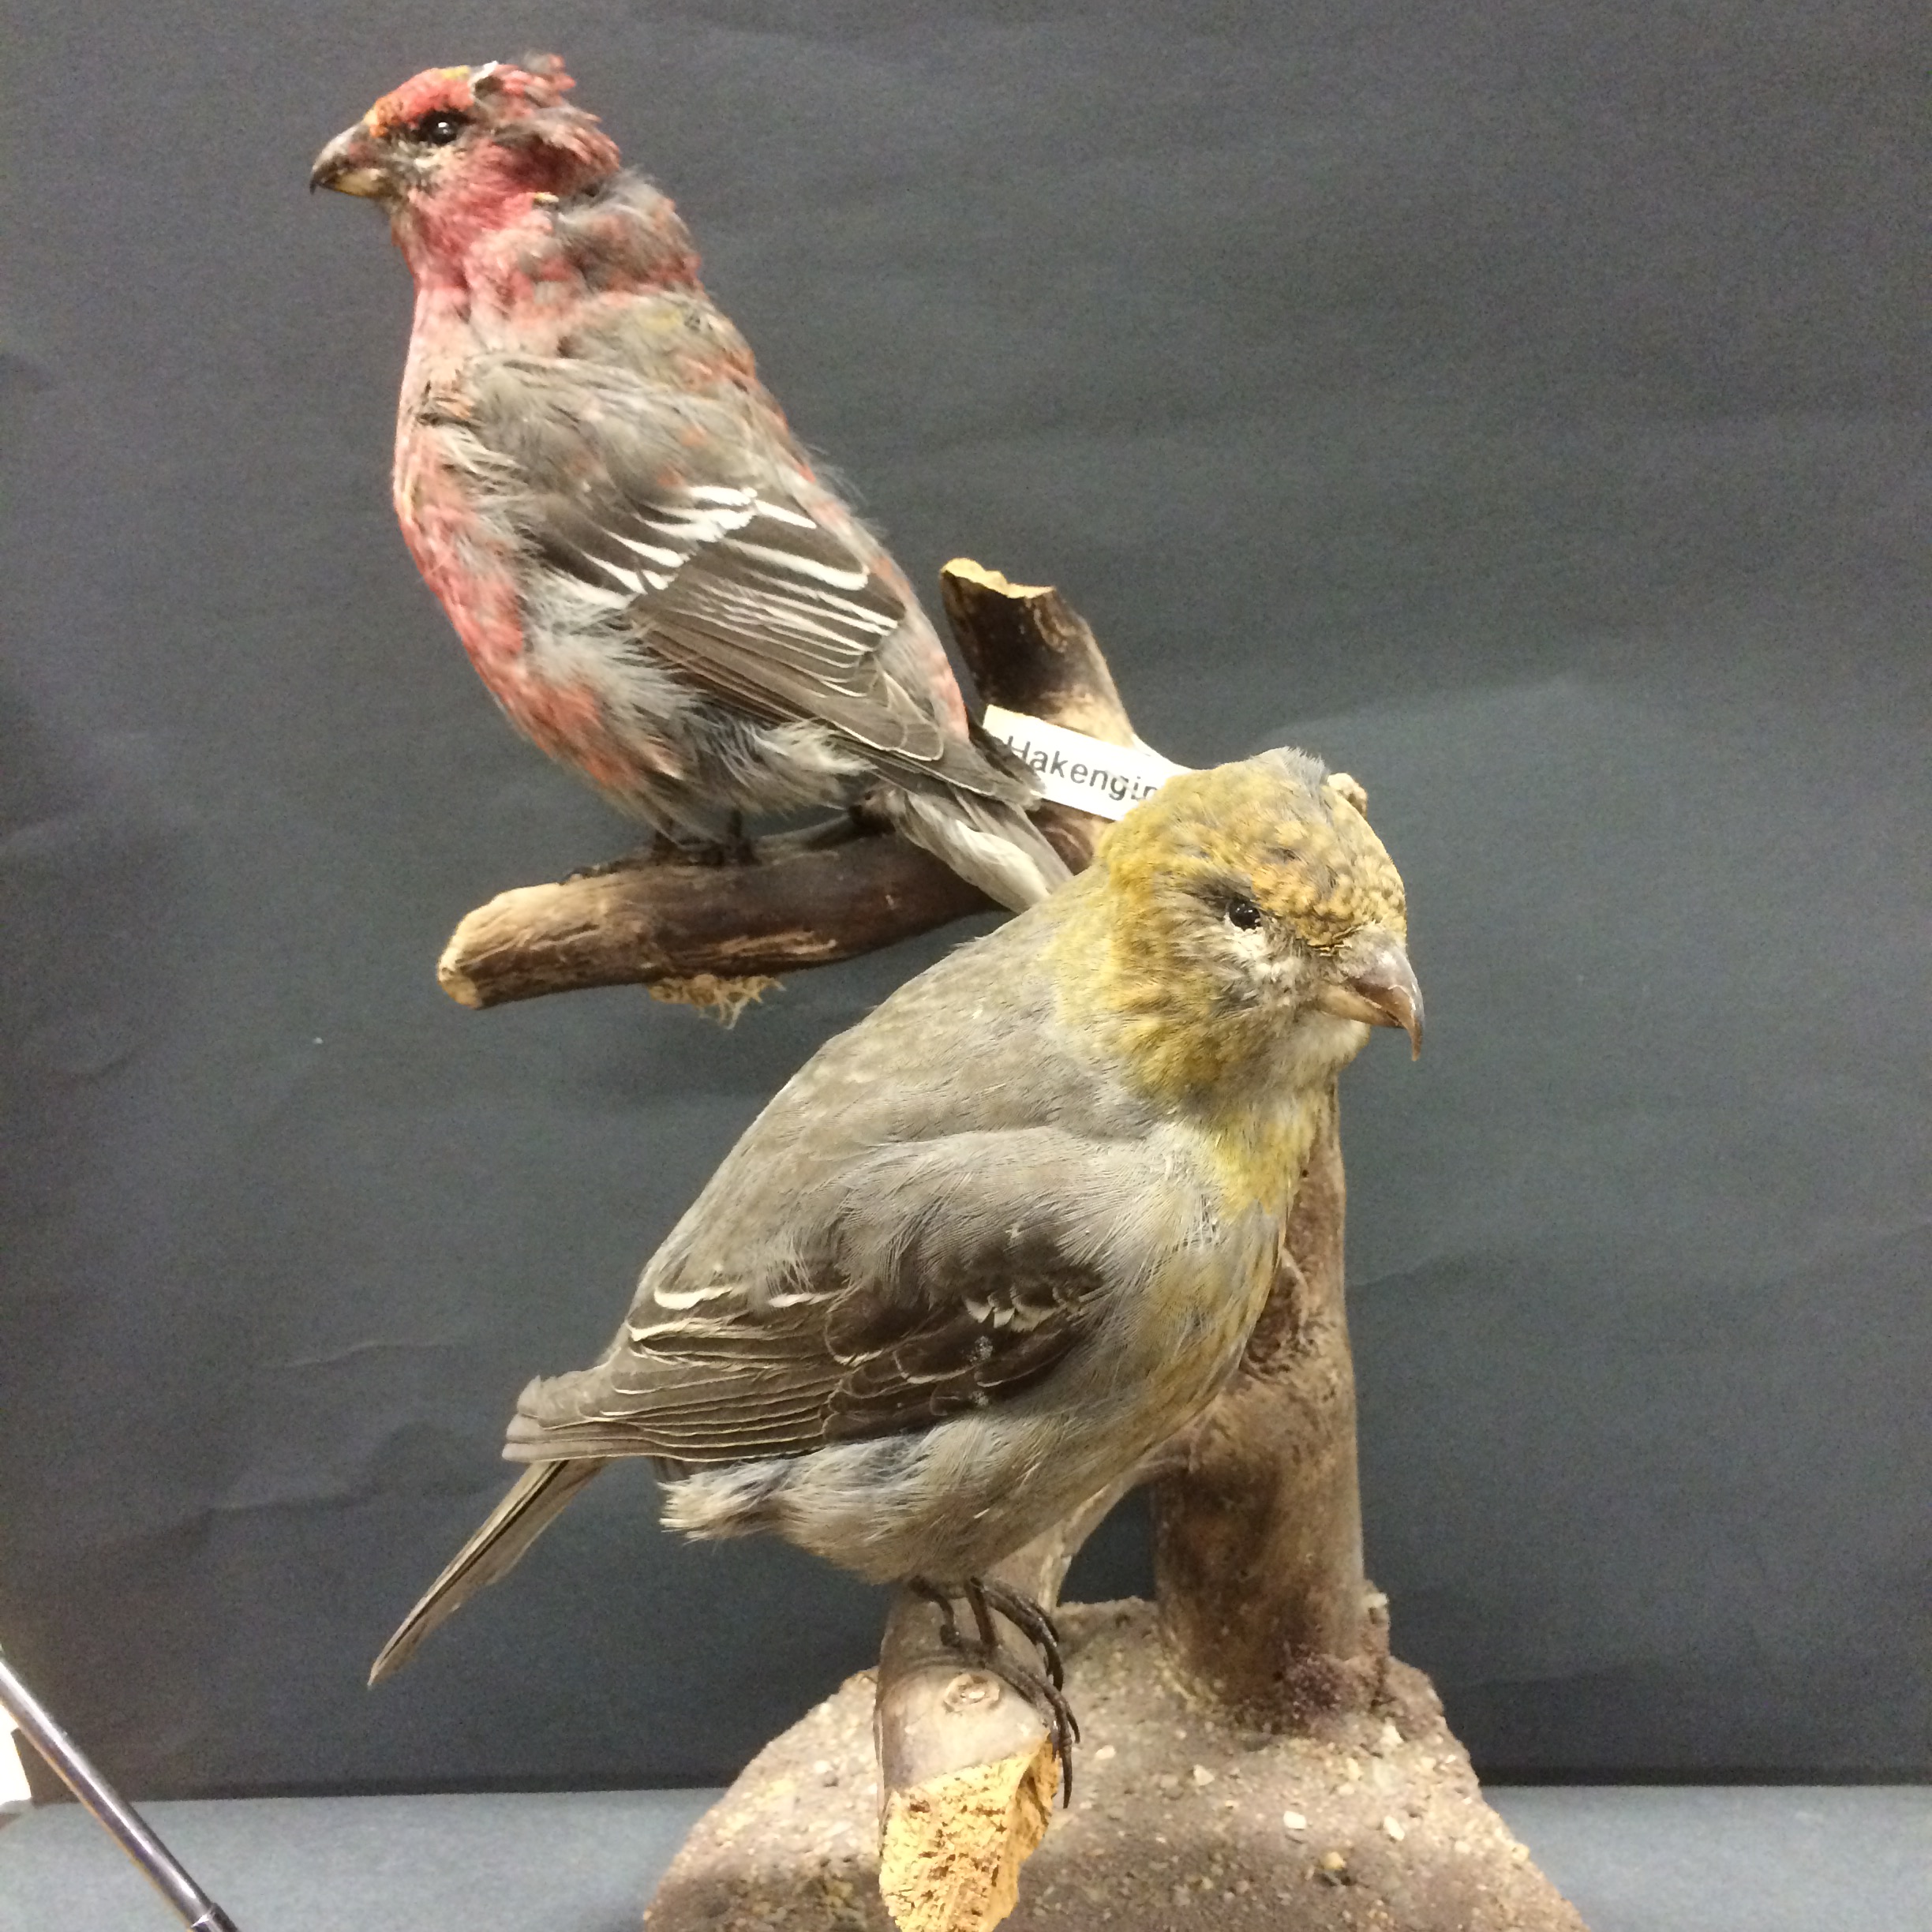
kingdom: Animalia
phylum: Chordata
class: Aves
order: Passeriformes
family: Fringillidae
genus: Pinicola
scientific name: Pinicola enucleator
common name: Pine grosbeak
